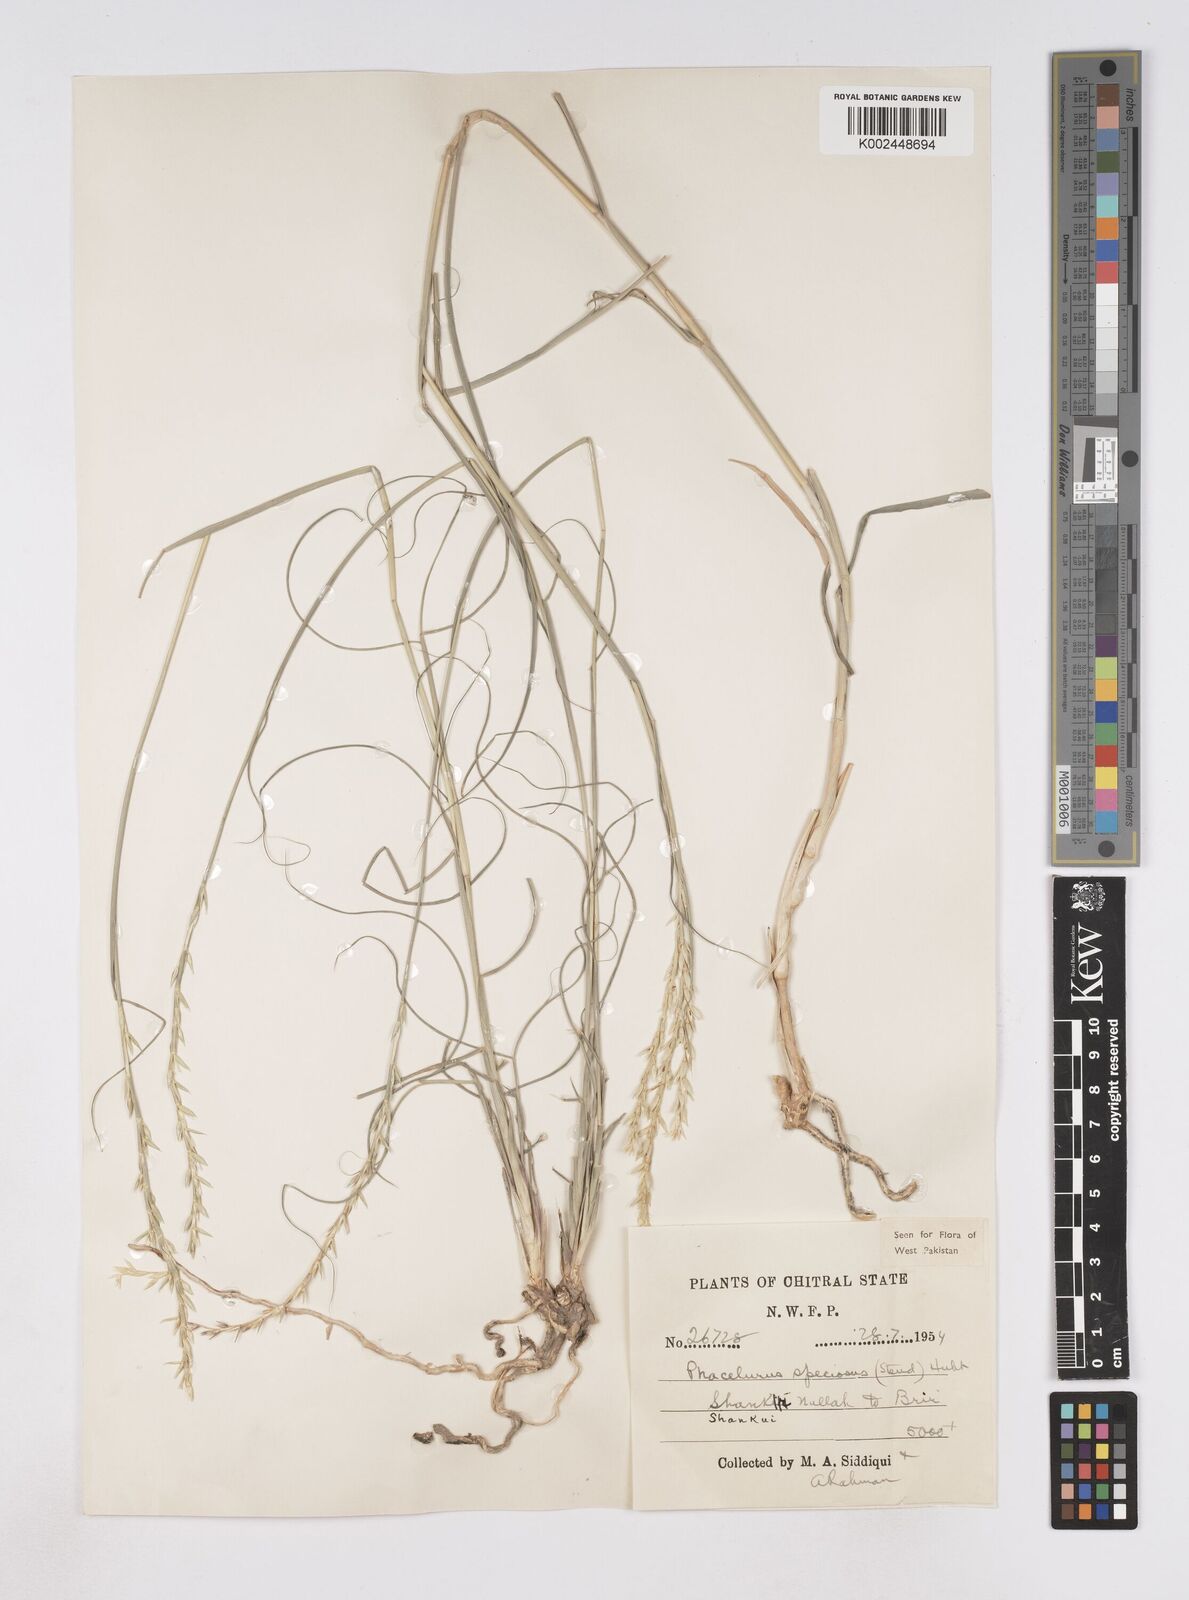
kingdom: Plantae
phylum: Tracheophyta
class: Liliopsida
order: Poales
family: Poaceae
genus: Phacelurus
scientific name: Phacelurus speciosus
